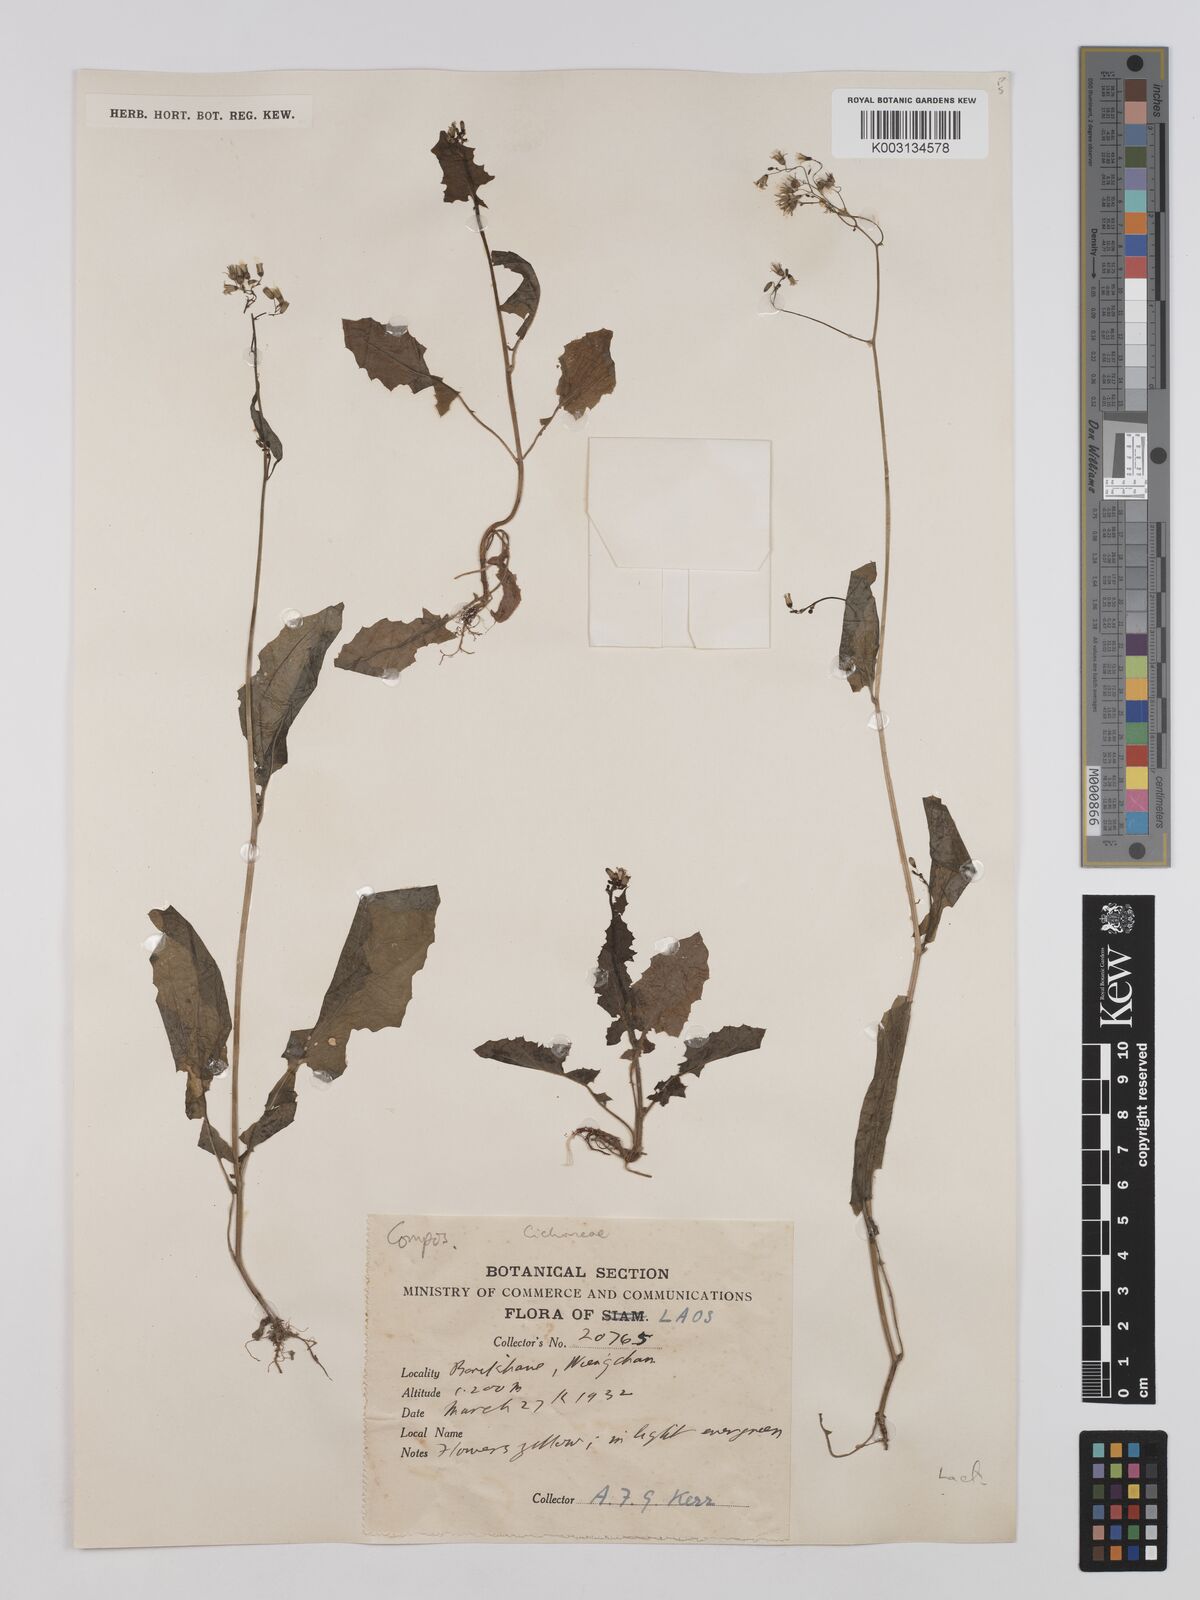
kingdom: Plantae
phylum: Tracheophyta
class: Magnoliopsida
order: Asterales
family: Asteraceae
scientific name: Asteraceae
